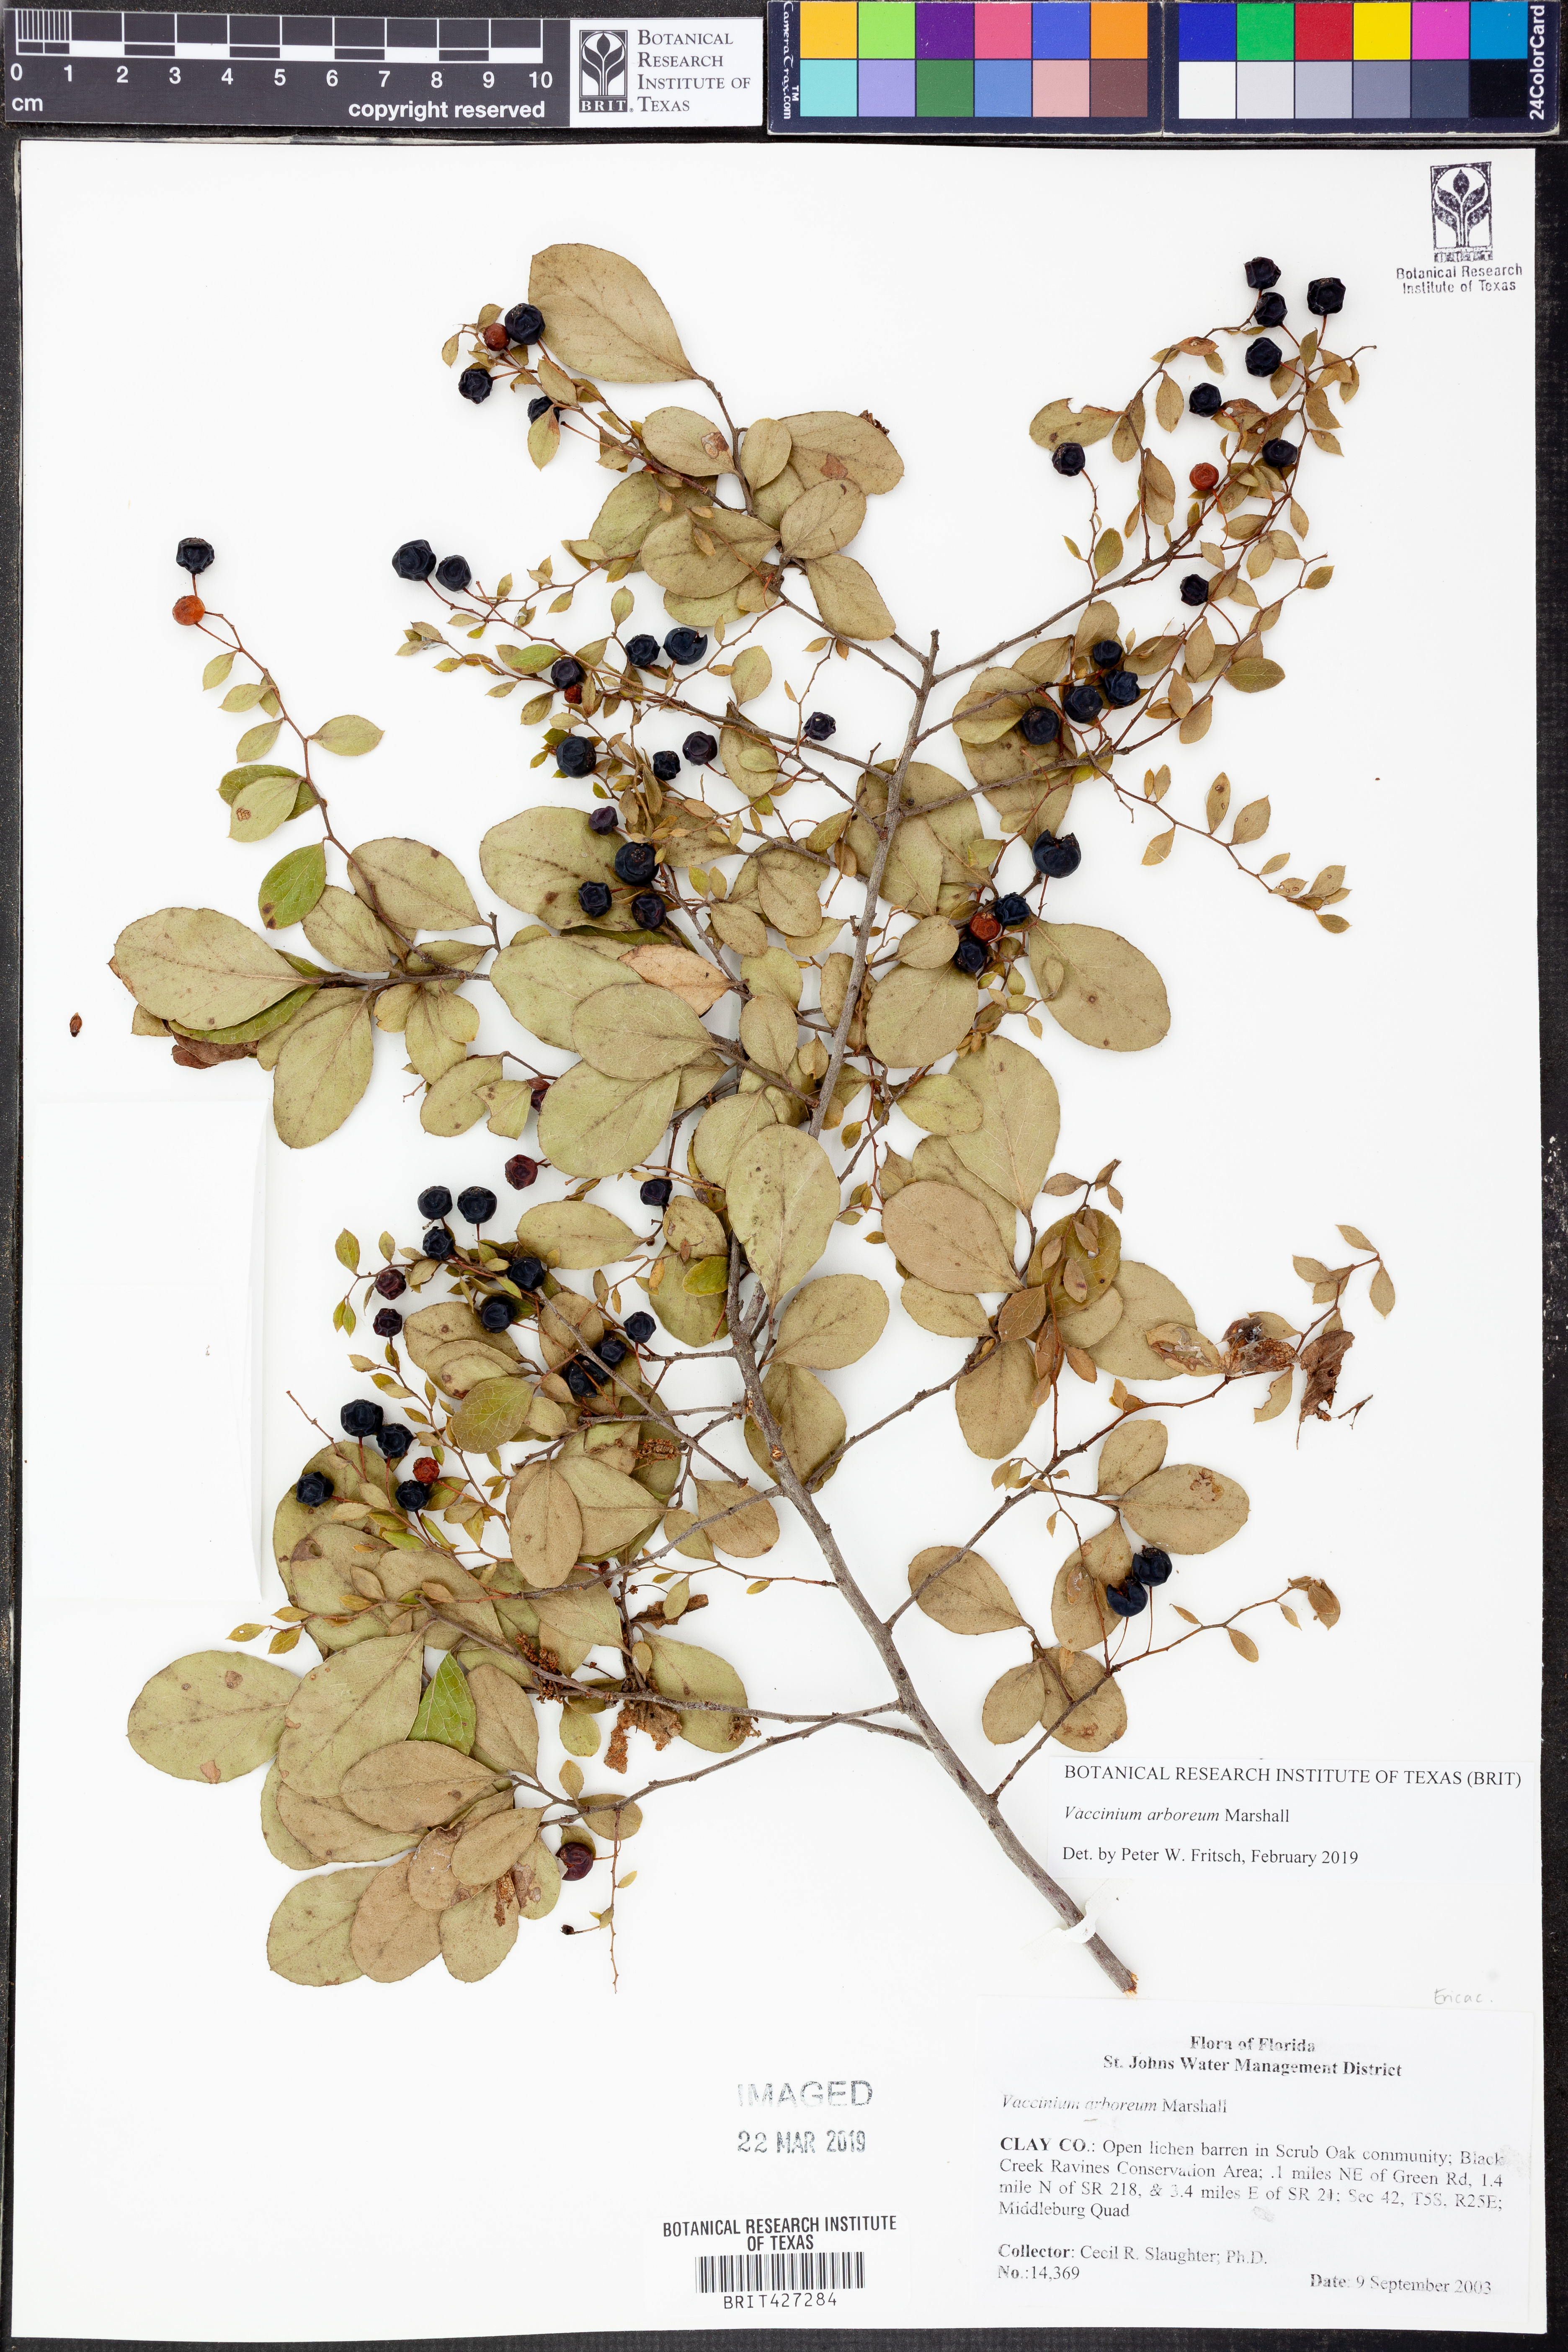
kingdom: Plantae
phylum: Tracheophyta
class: Magnoliopsida
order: Ericales
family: Ericaceae
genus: Vaccinium
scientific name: Vaccinium arboreum
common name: Farkleberry
